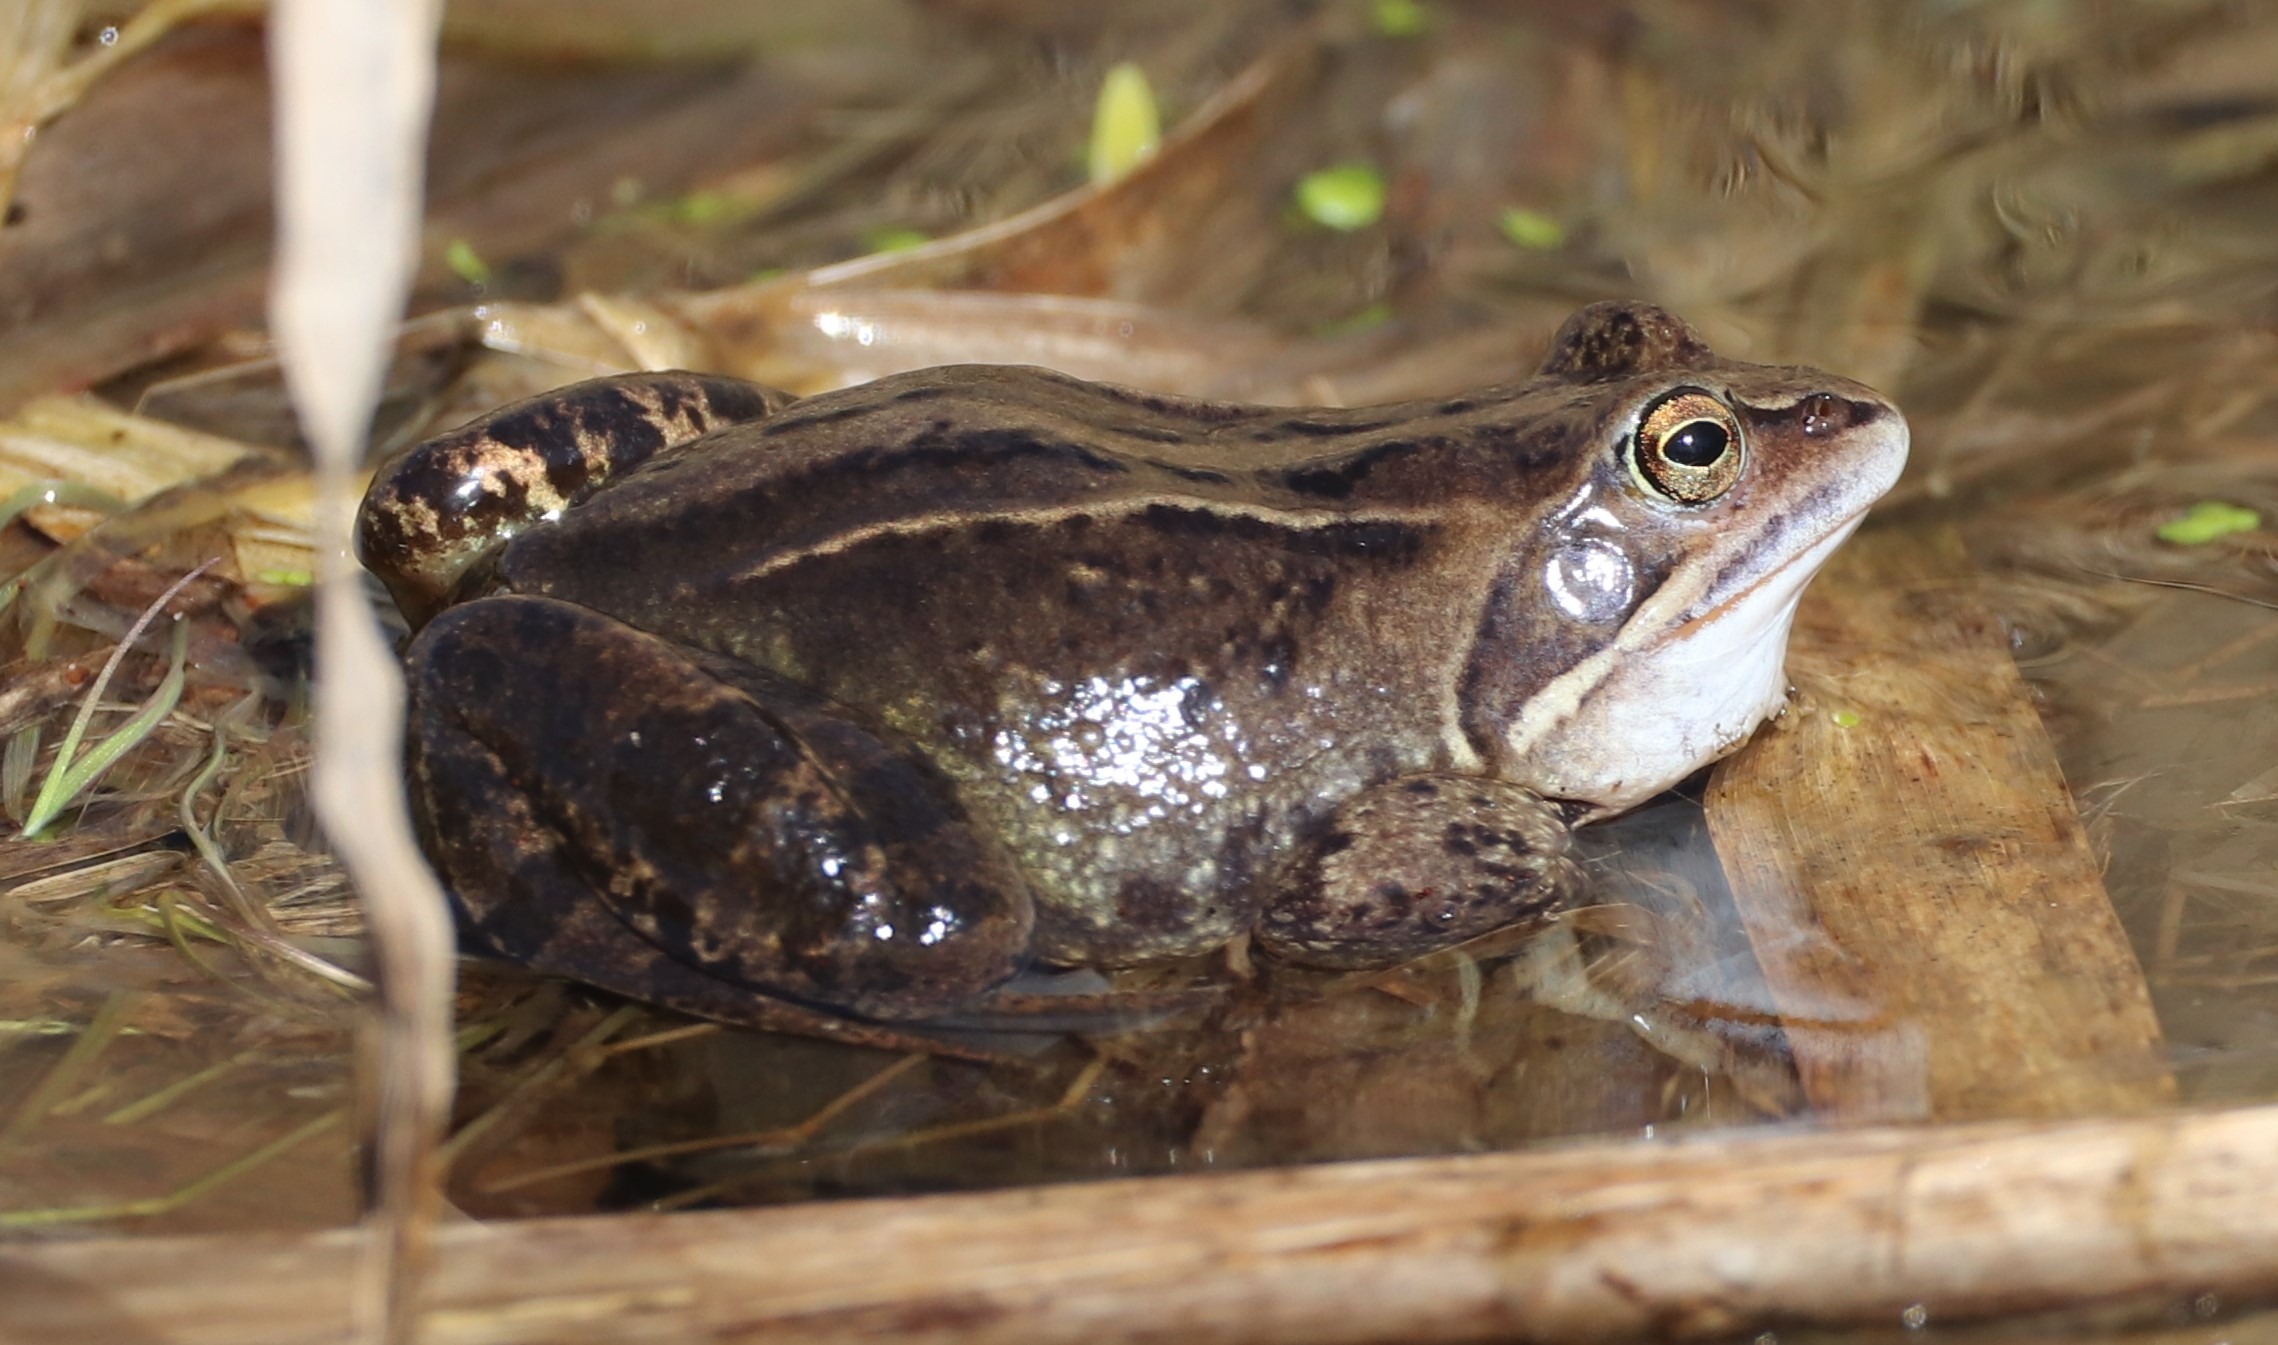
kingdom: Animalia
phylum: Chordata
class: Amphibia
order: Anura
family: Ranidae
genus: Rana
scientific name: Rana arvalis
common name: Spidssnudet frø
